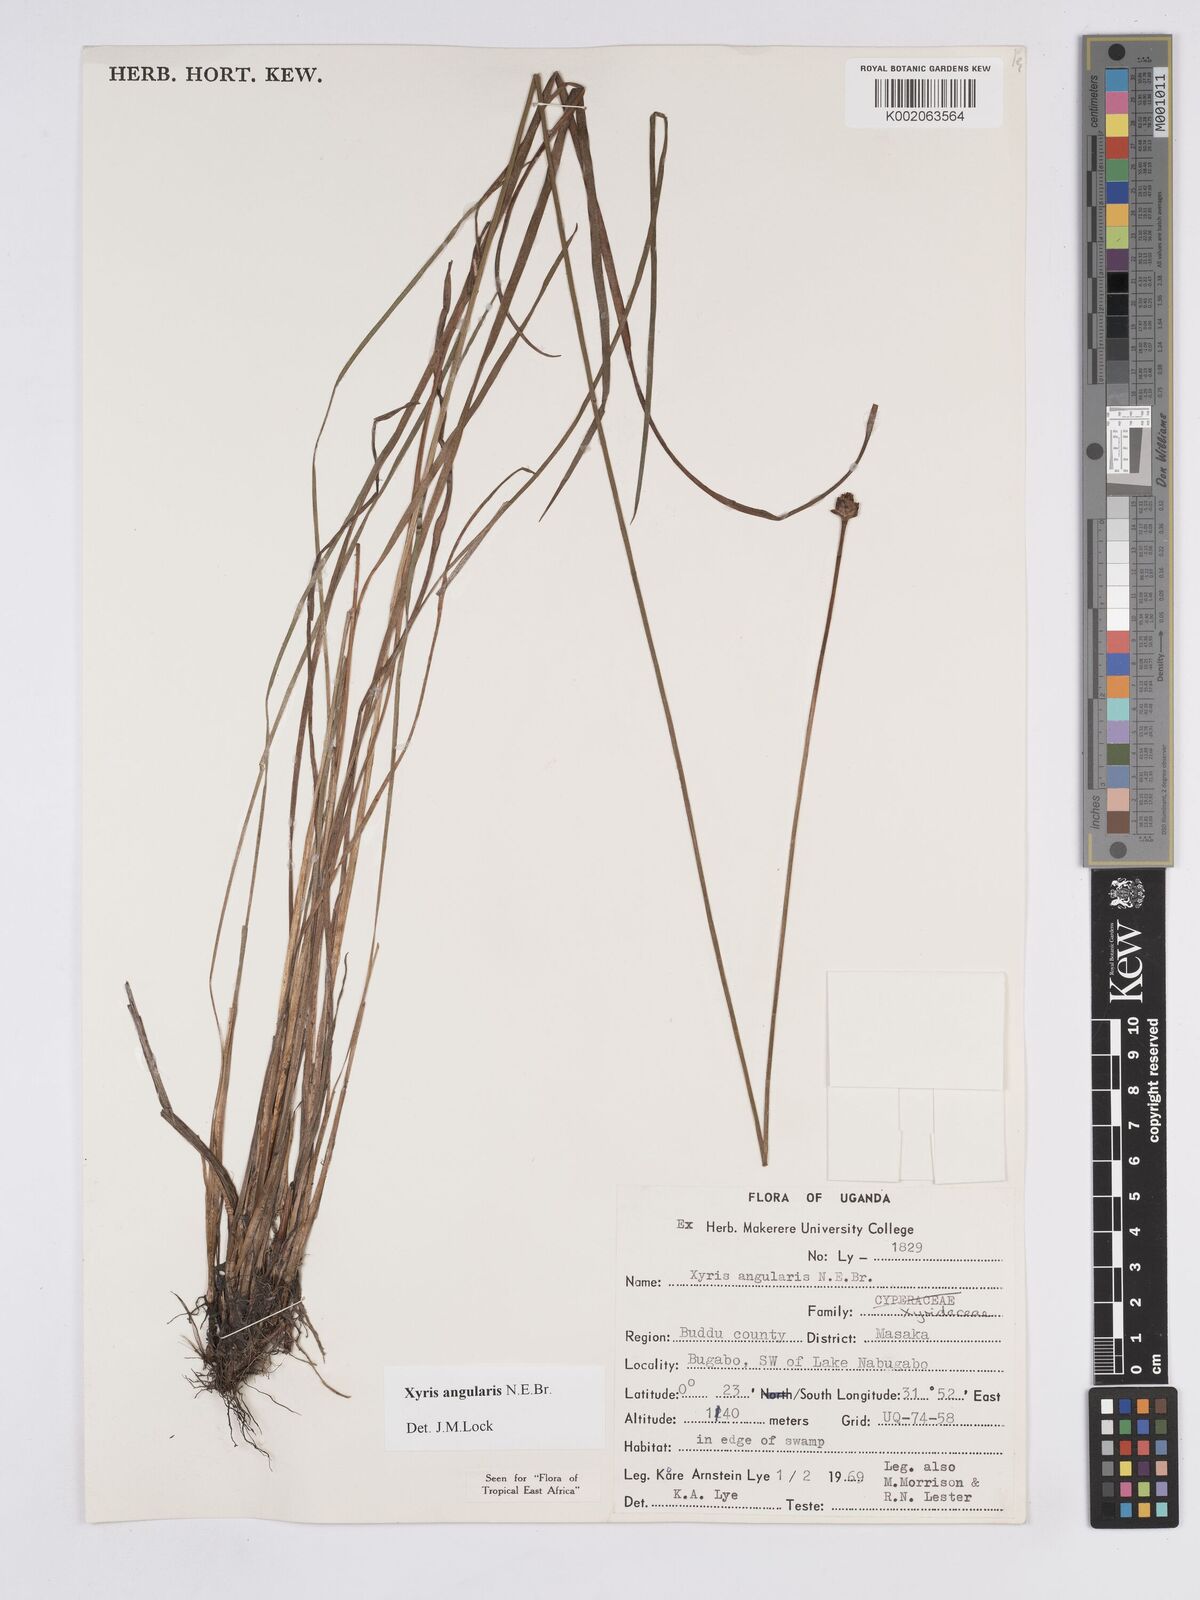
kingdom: Plantae
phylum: Tracheophyta
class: Liliopsida
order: Poales
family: Xyridaceae
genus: Xyris
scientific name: Xyris angularis
